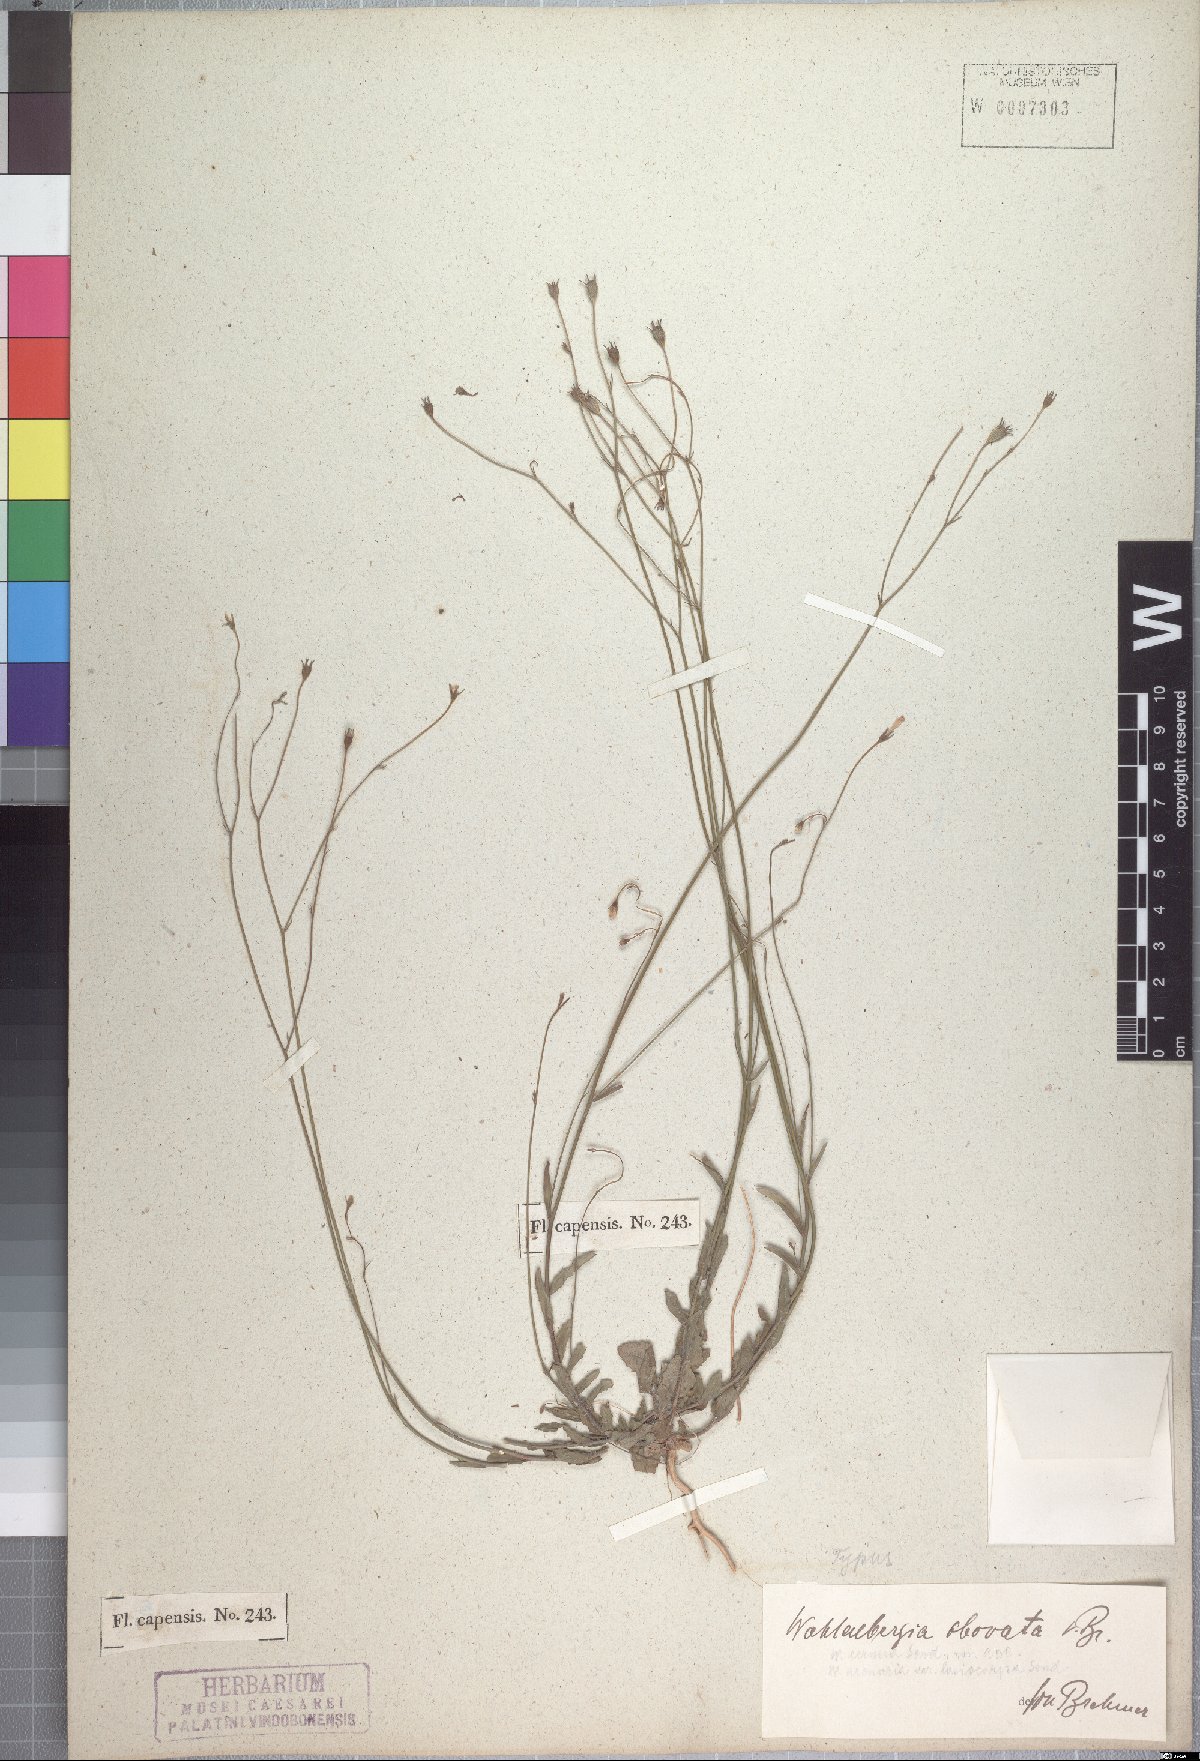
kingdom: Plantae
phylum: Tracheophyta
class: Magnoliopsida
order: Asterales
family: Campanulaceae
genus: Wahlenbergia
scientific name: Wahlenbergia obovata
